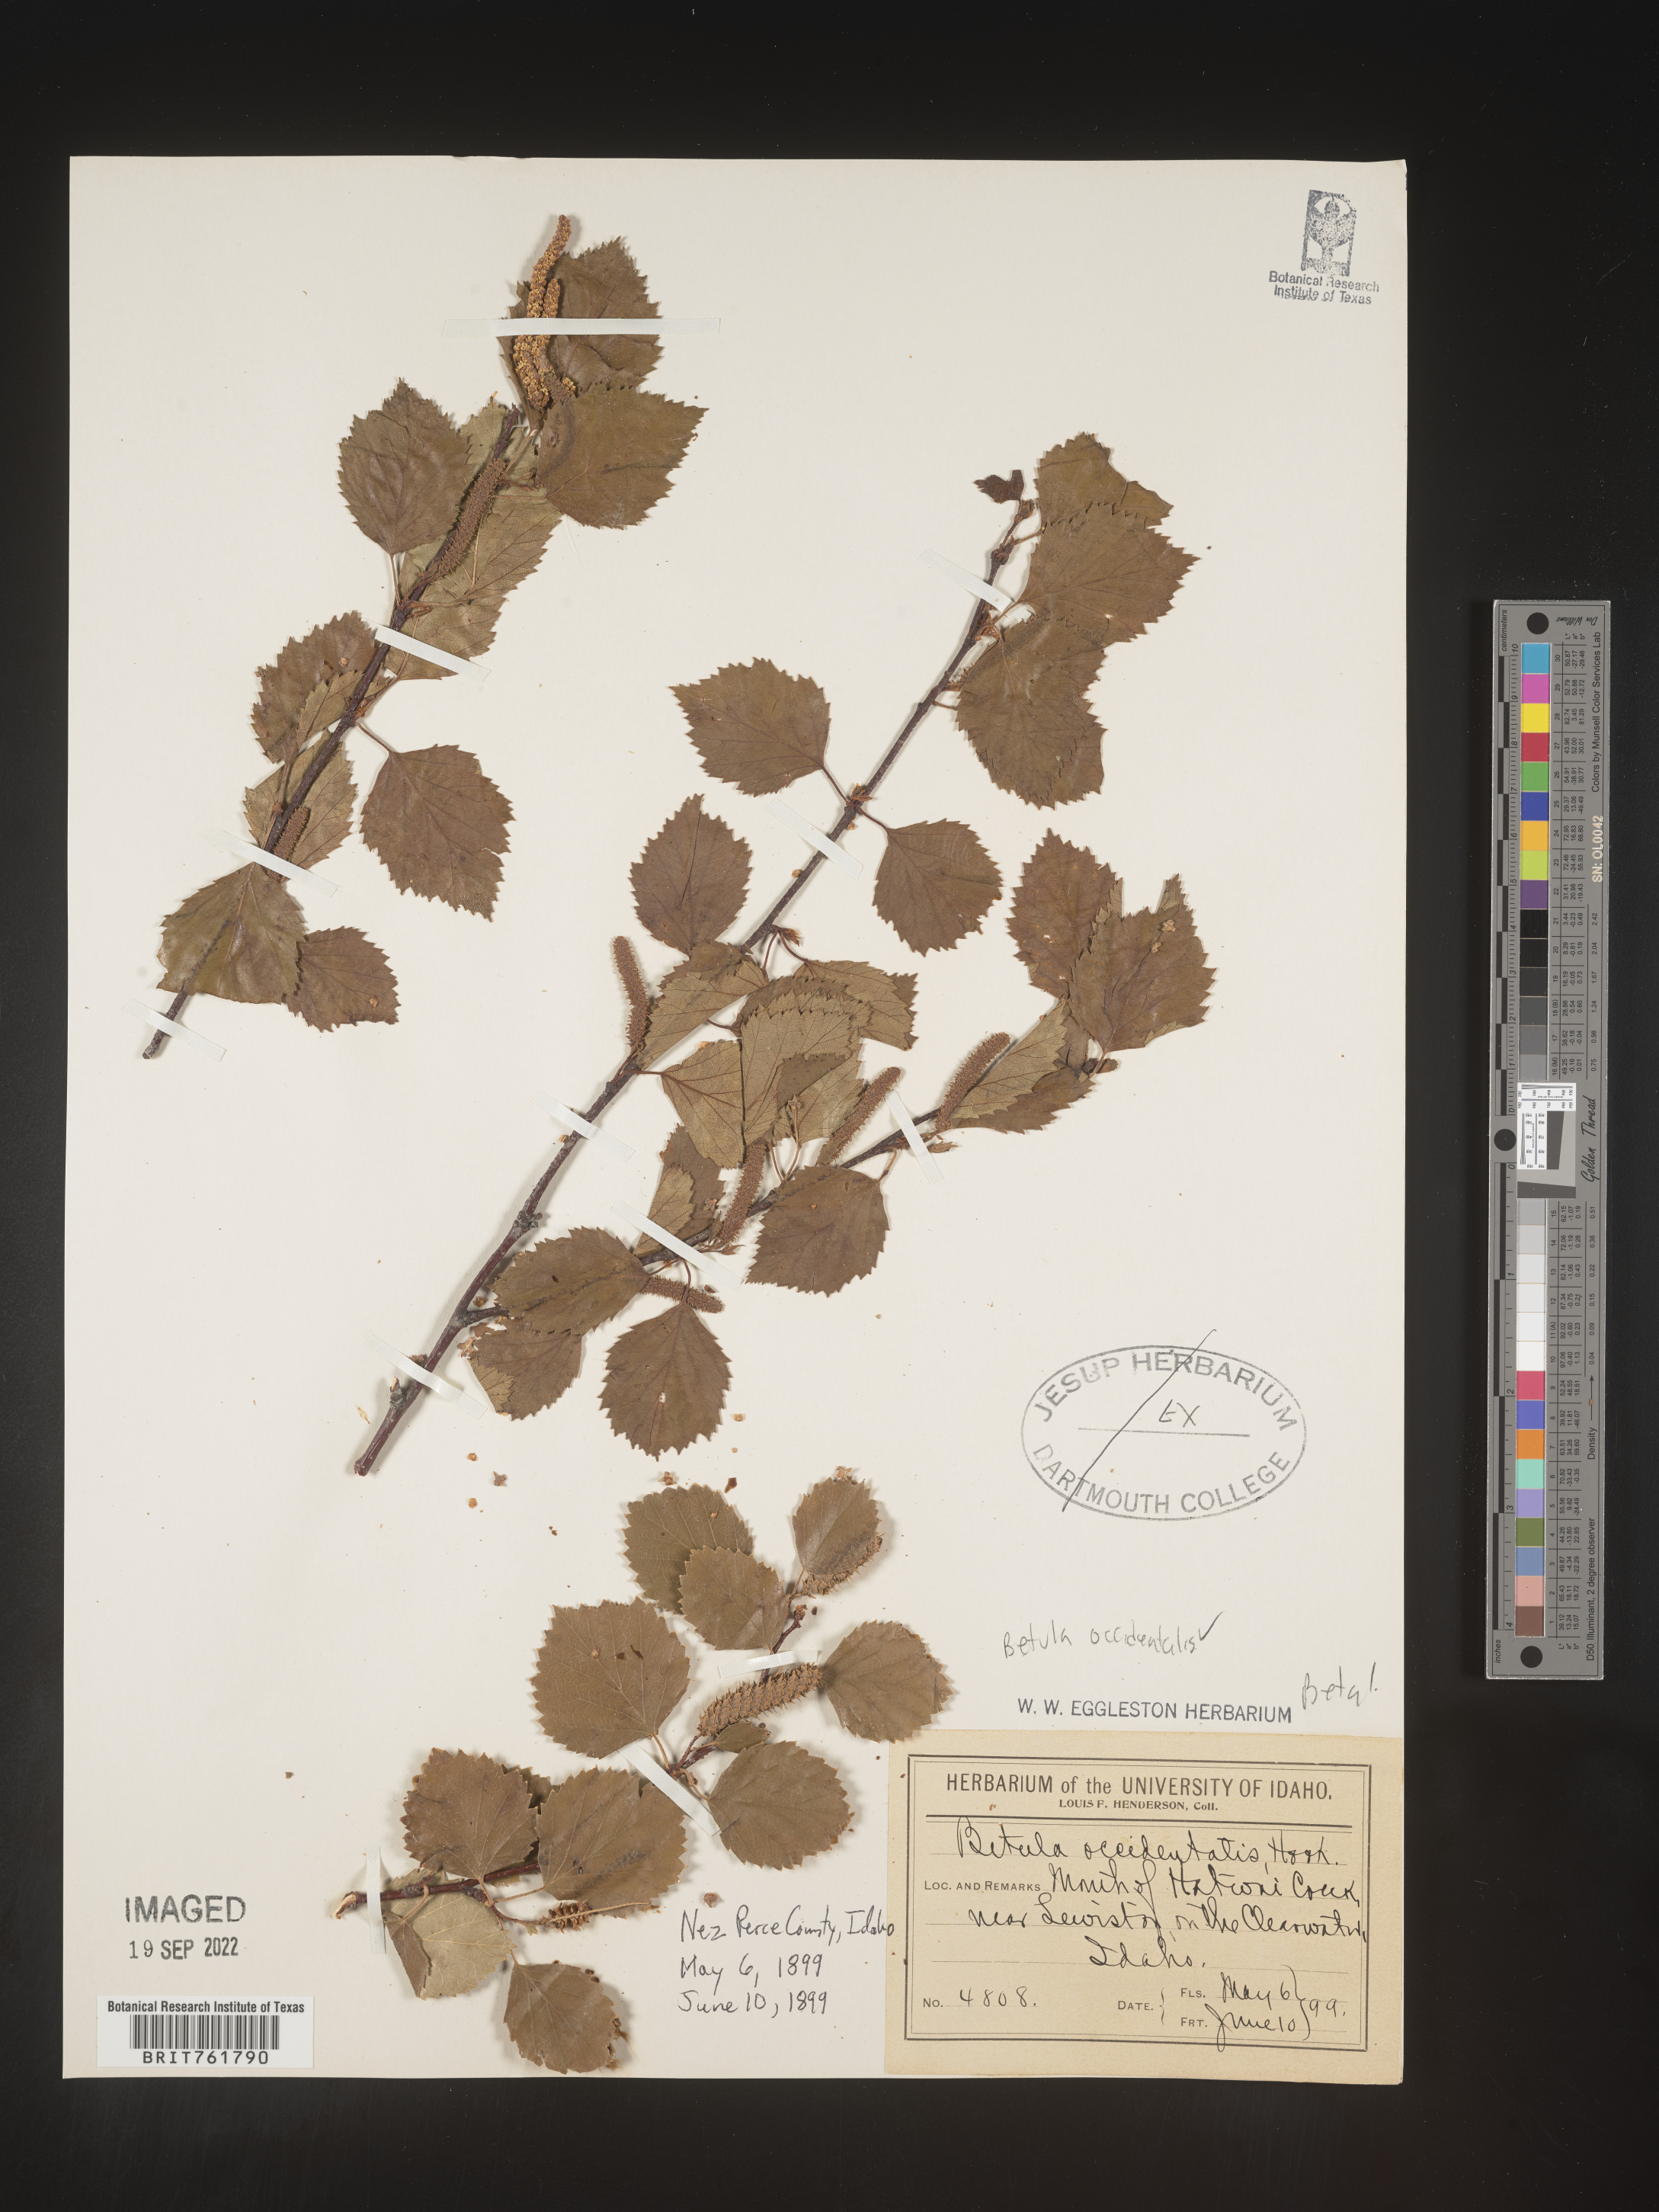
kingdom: Plantae
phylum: Tracheophyta
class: Magnoliopsida
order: Fagales
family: Betulaceae
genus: Betula
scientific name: Betula occidentalis
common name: River birch
